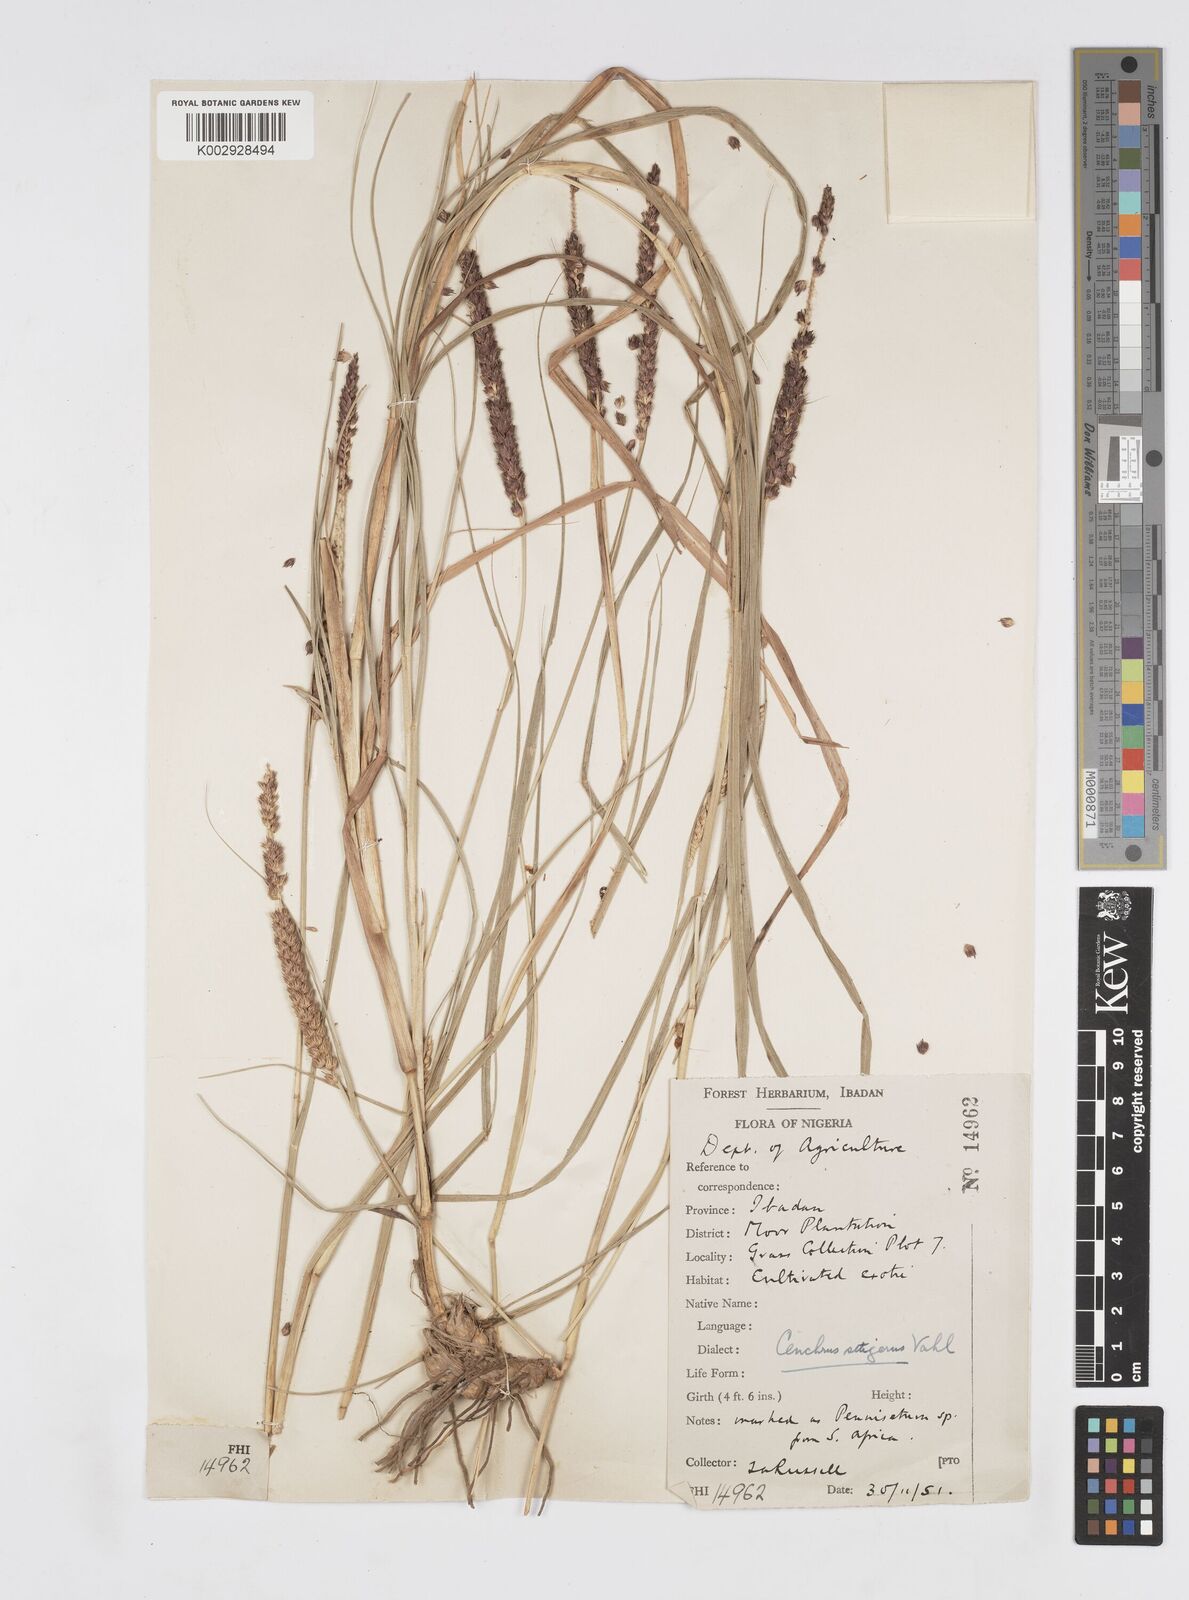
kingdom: Plantae
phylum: Tracheophyta
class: Liliopsida
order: Poales
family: Poaceae
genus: Cenchrus
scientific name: Cenchrus setigerus
